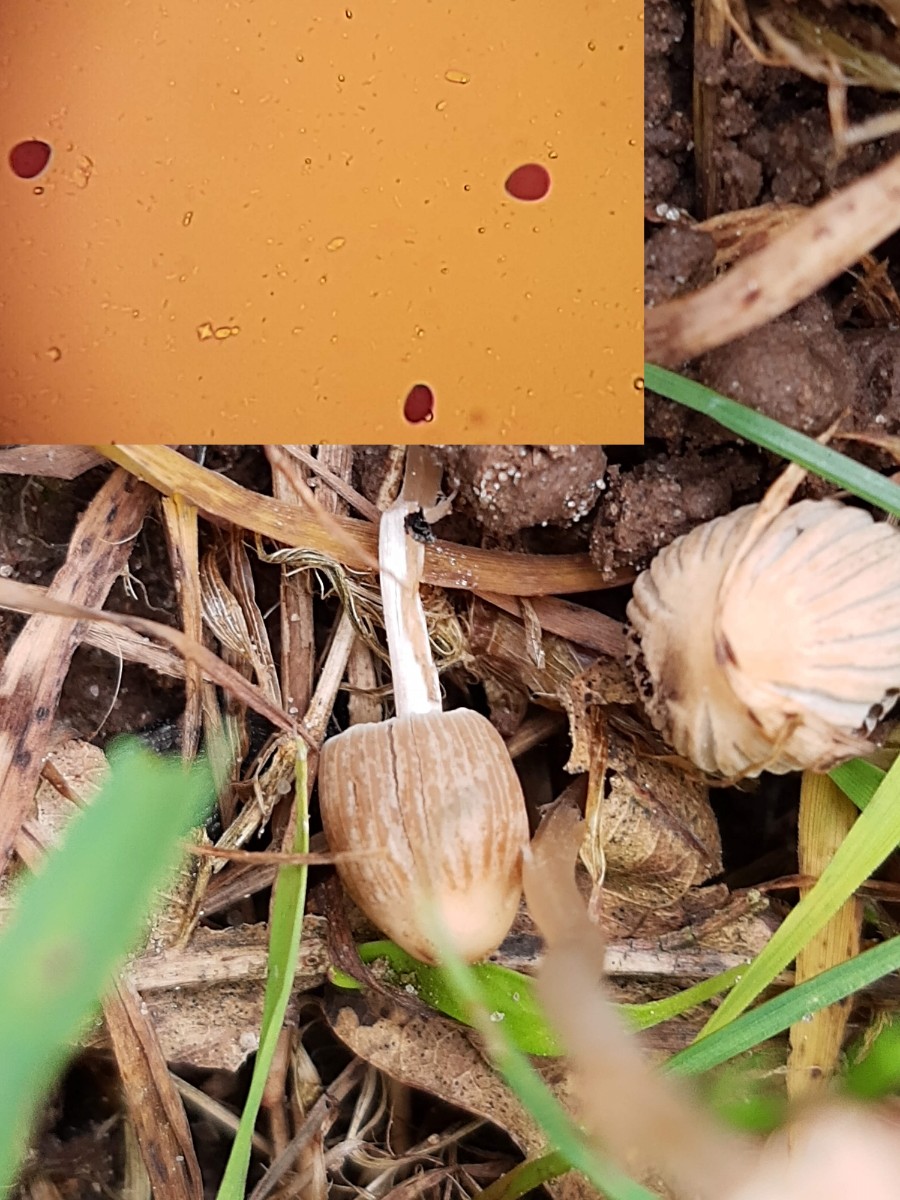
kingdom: Fungi
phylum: Basidiomycota
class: Agaricomycetes
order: Agaricales
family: Psathyrellaceae
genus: Parasola
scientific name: Parasola schroeteri
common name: bredsporet hjulhat
